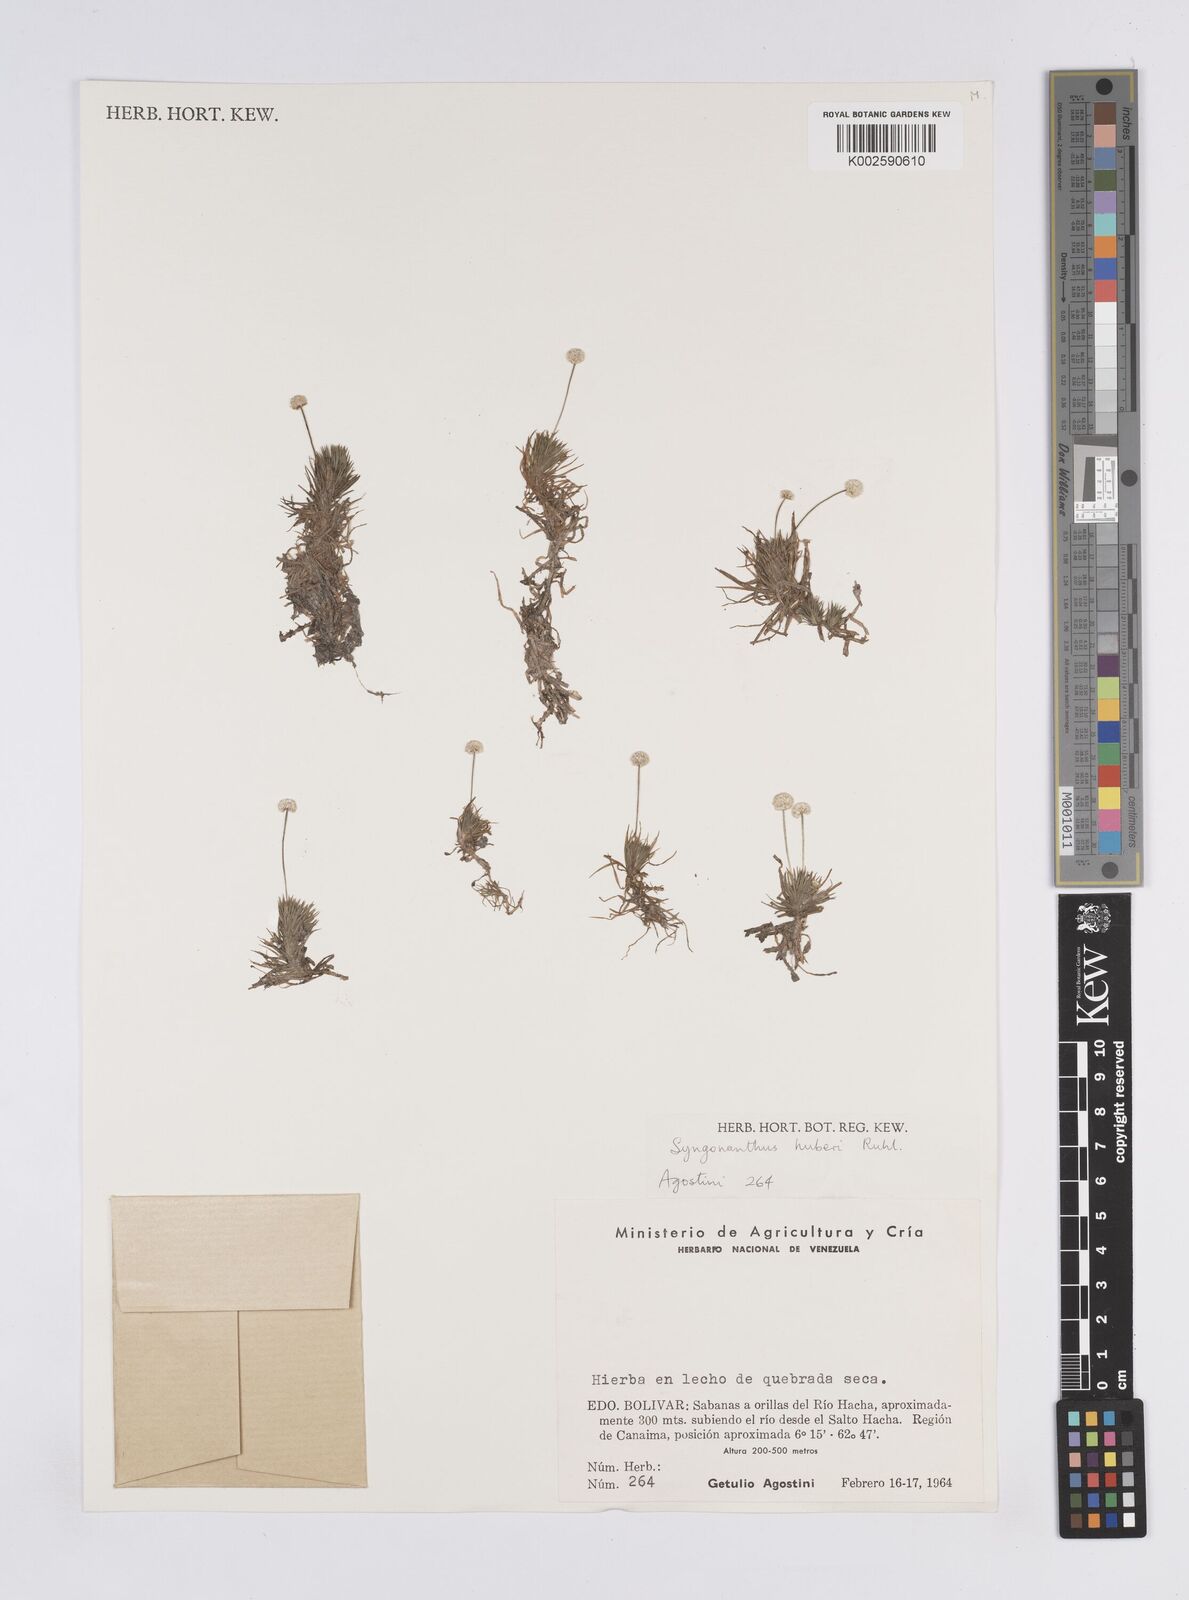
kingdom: Plantae
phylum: Tracheophyta
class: Liliopsida
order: Poales
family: Eriocaulaceae
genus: Syngonanthus
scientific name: Syngonanthus anomalus
